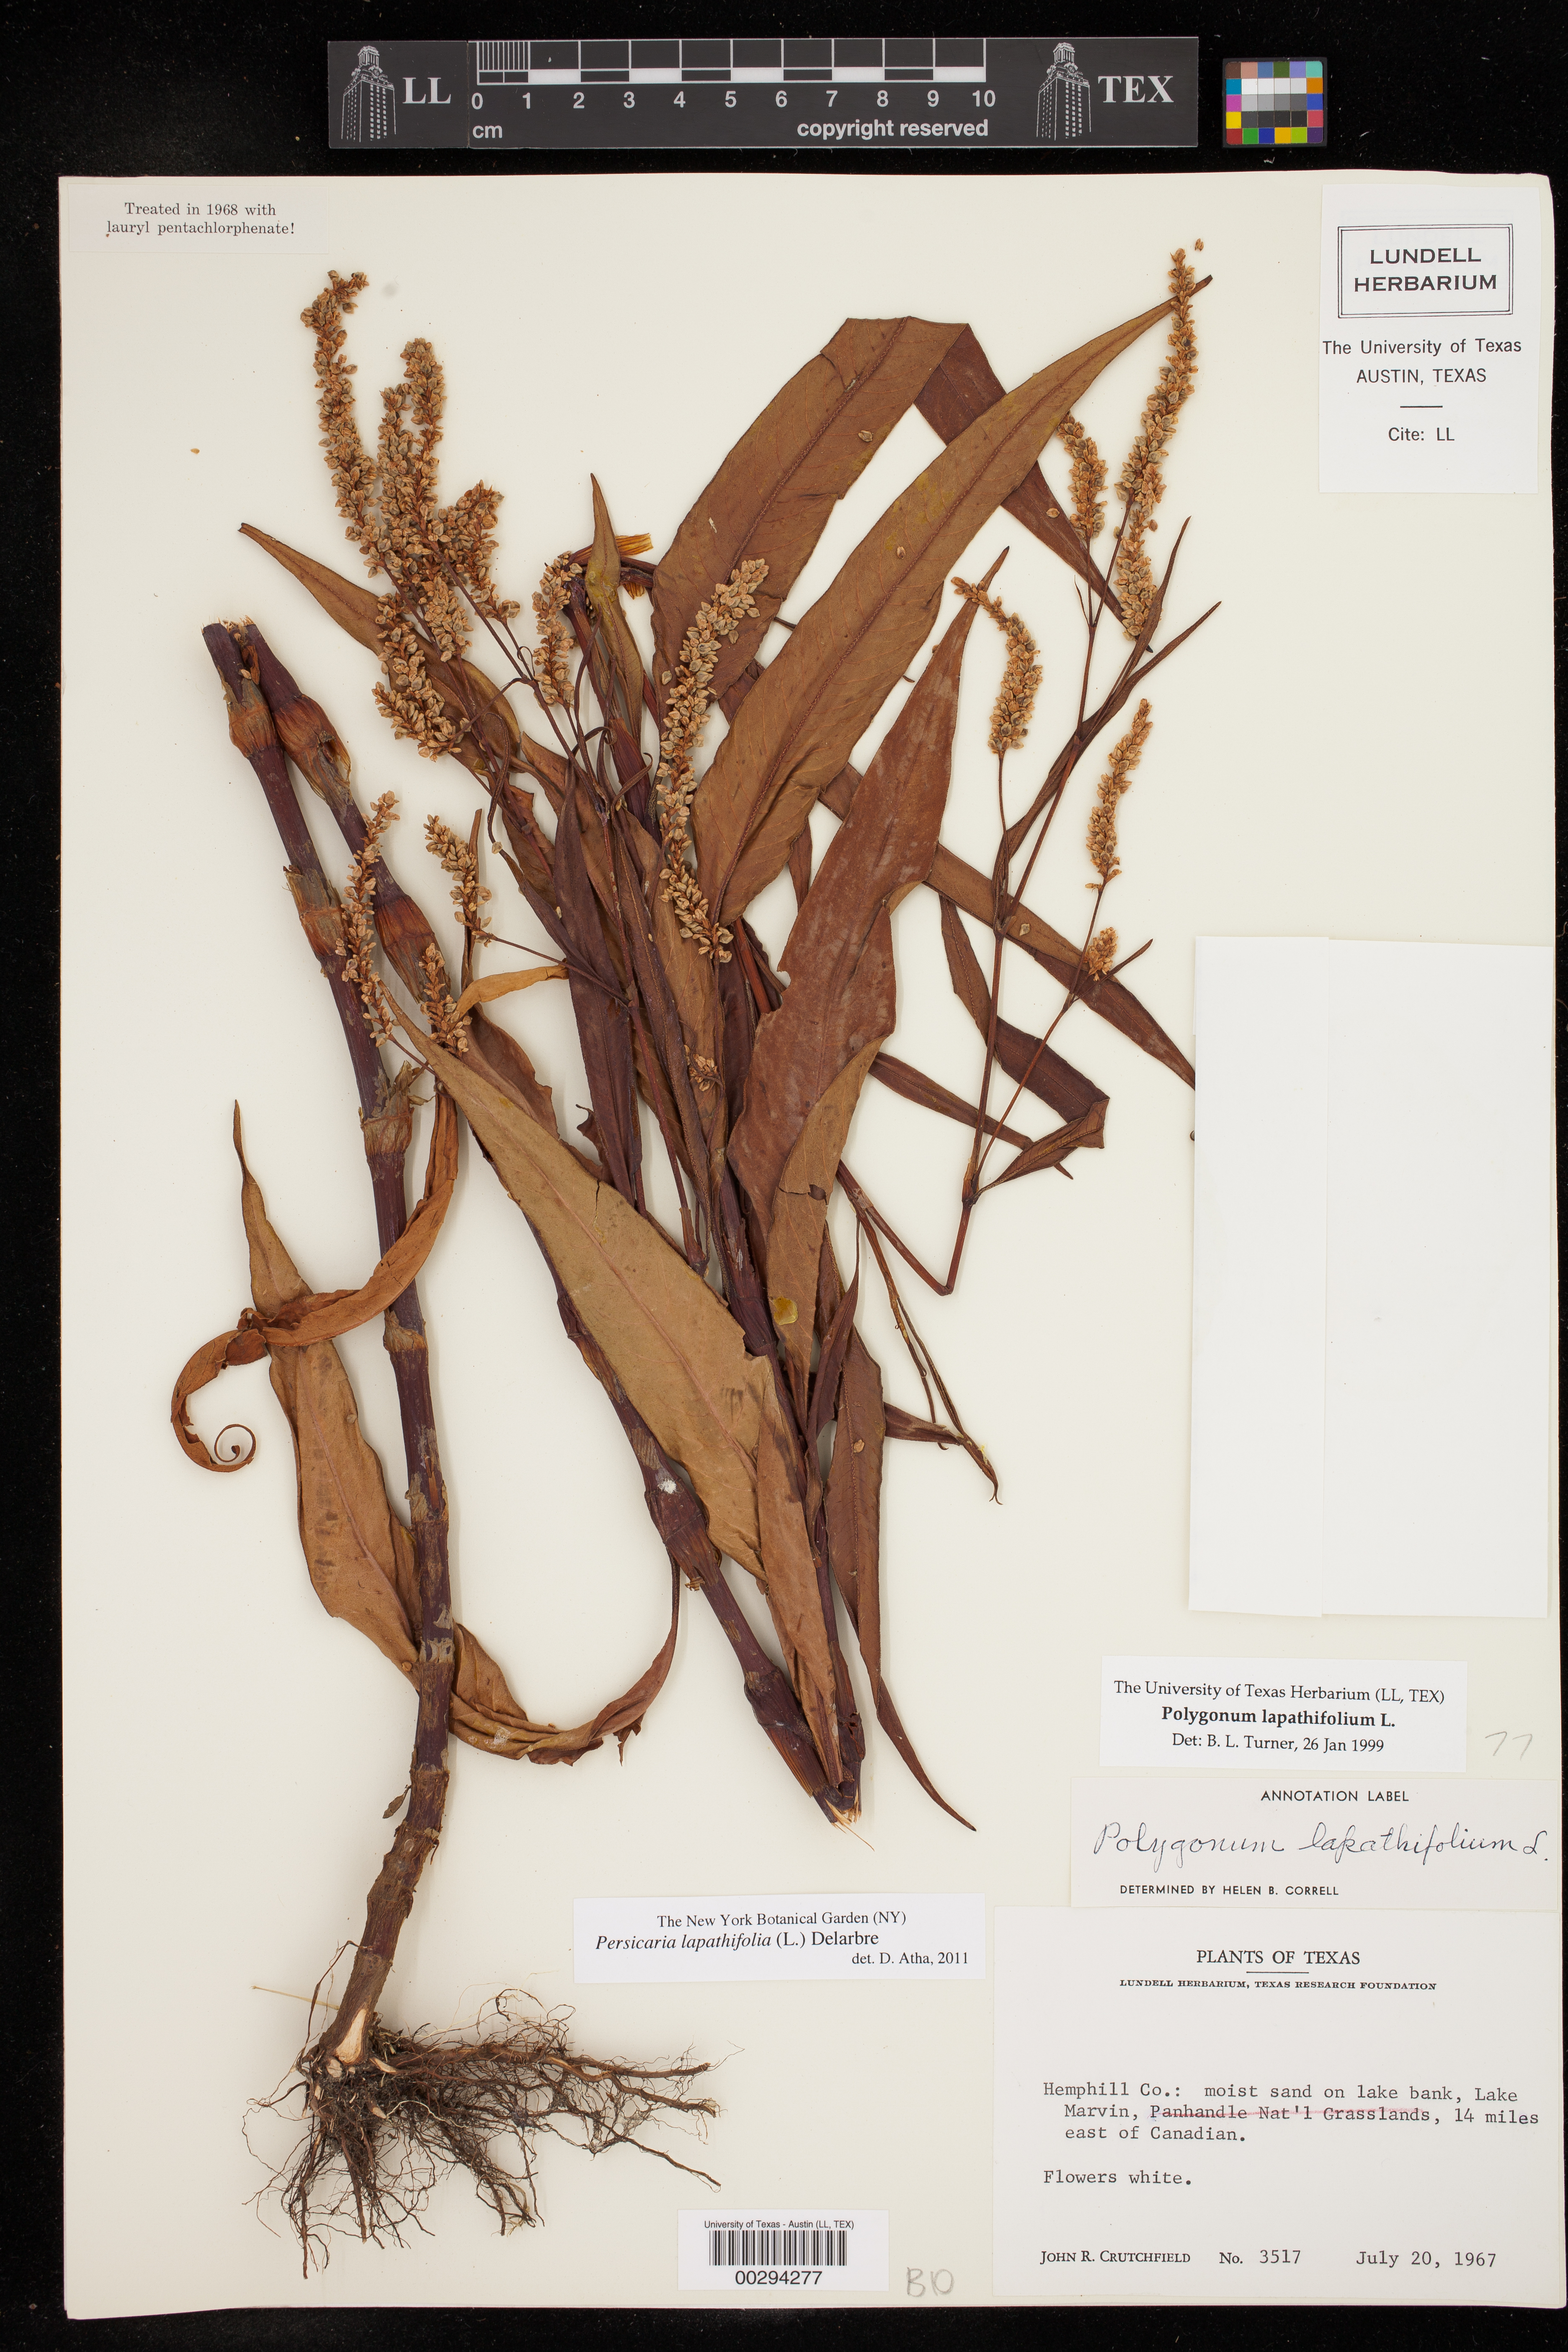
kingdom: Plantae
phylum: Tracheophyta
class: Magnoliopsida
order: Caryophyllales
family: Polygonaceae
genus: Persicaria
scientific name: Persicaria lapathifolia
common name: Curlytop knotweed
